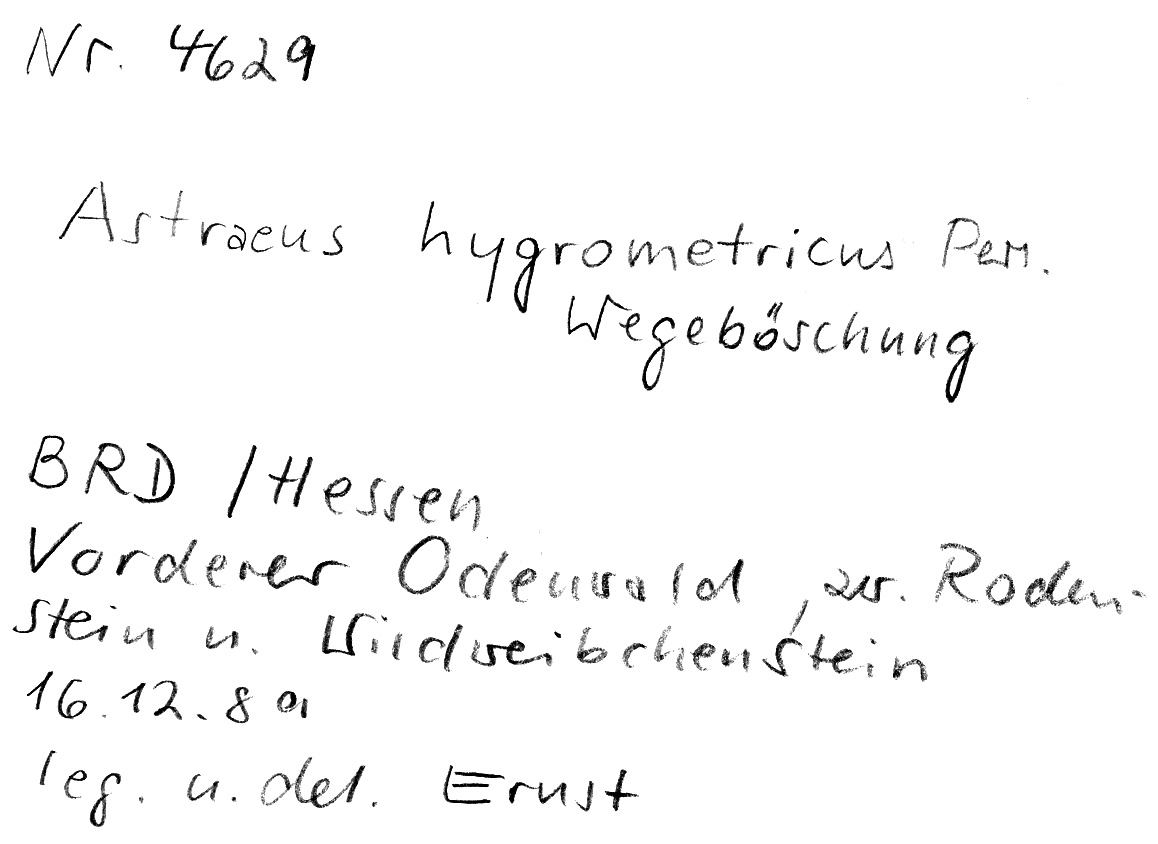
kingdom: Fungi
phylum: Basidiomycota
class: Agaricomycetes
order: Boletales
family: Diplocystidiaceae
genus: Astraeus
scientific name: Astraeus hygrometricus
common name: Barometer earthstar
